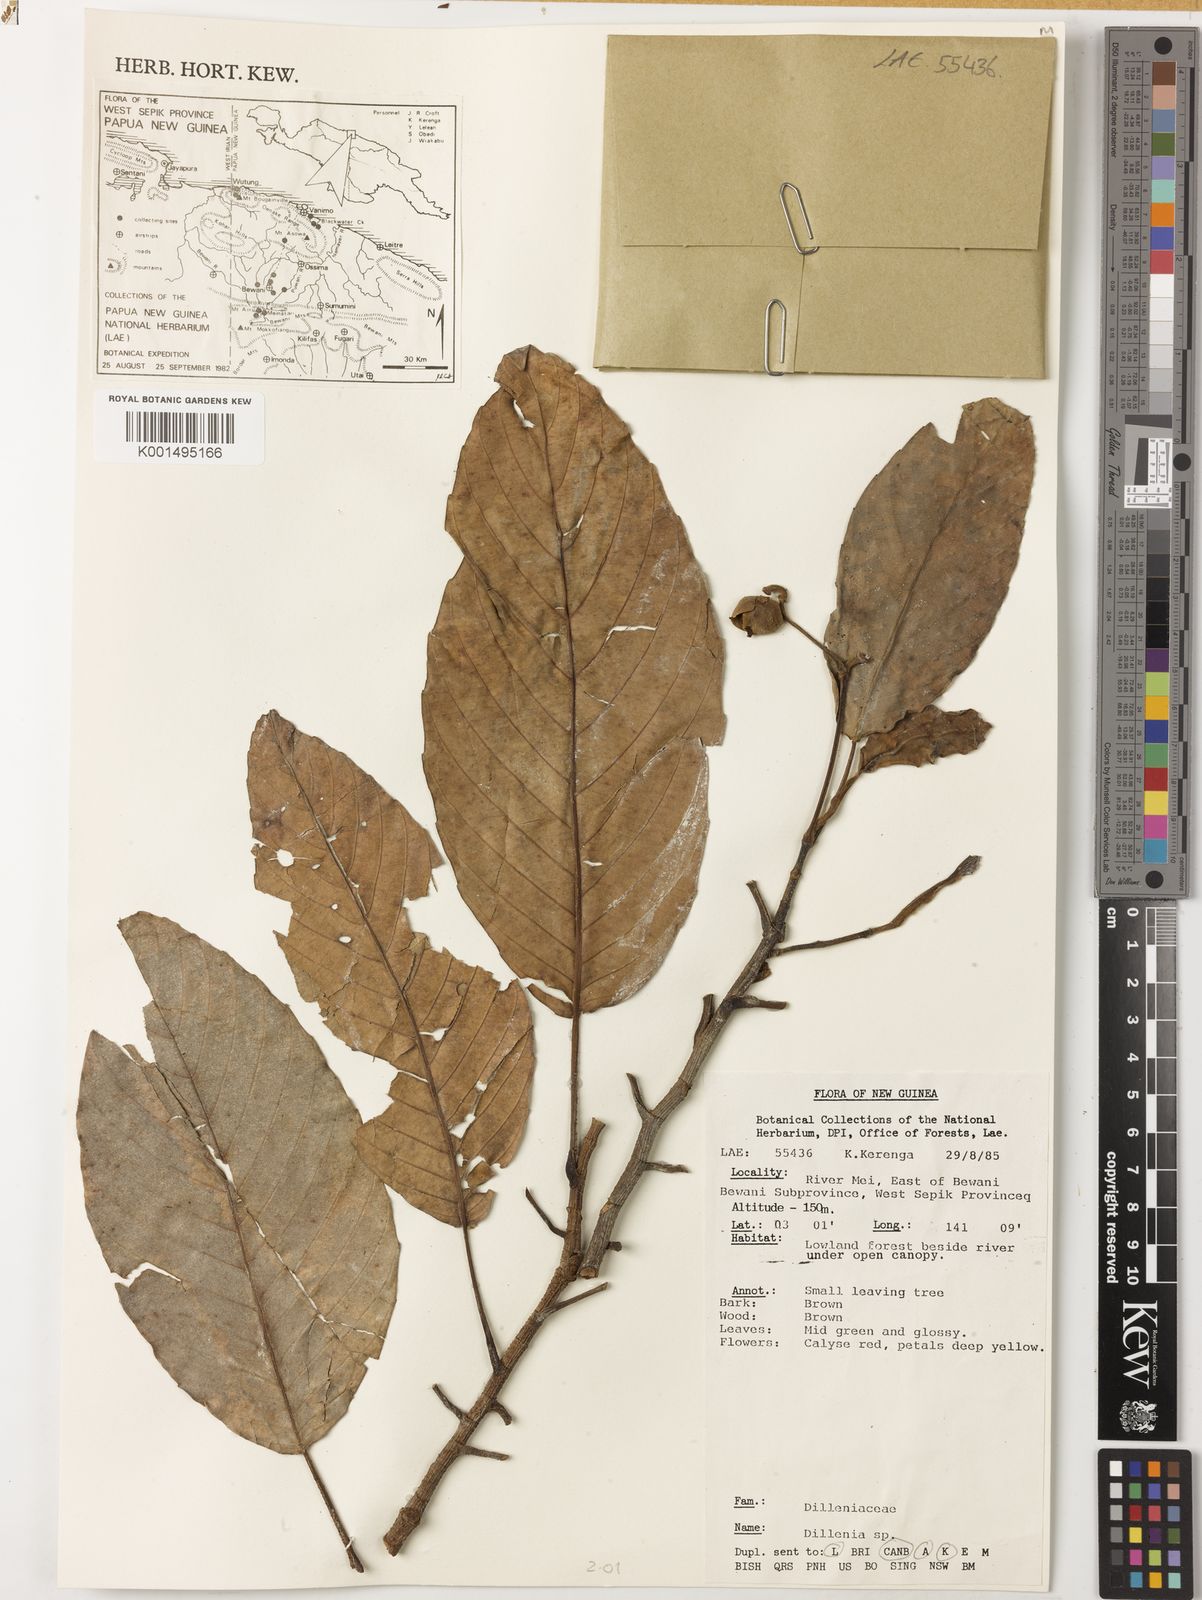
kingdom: Plantae
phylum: Tracheophyta
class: Magnoliopsida
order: Dilleniales
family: Dilleniaceae
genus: Dillenia
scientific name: Dillenia
